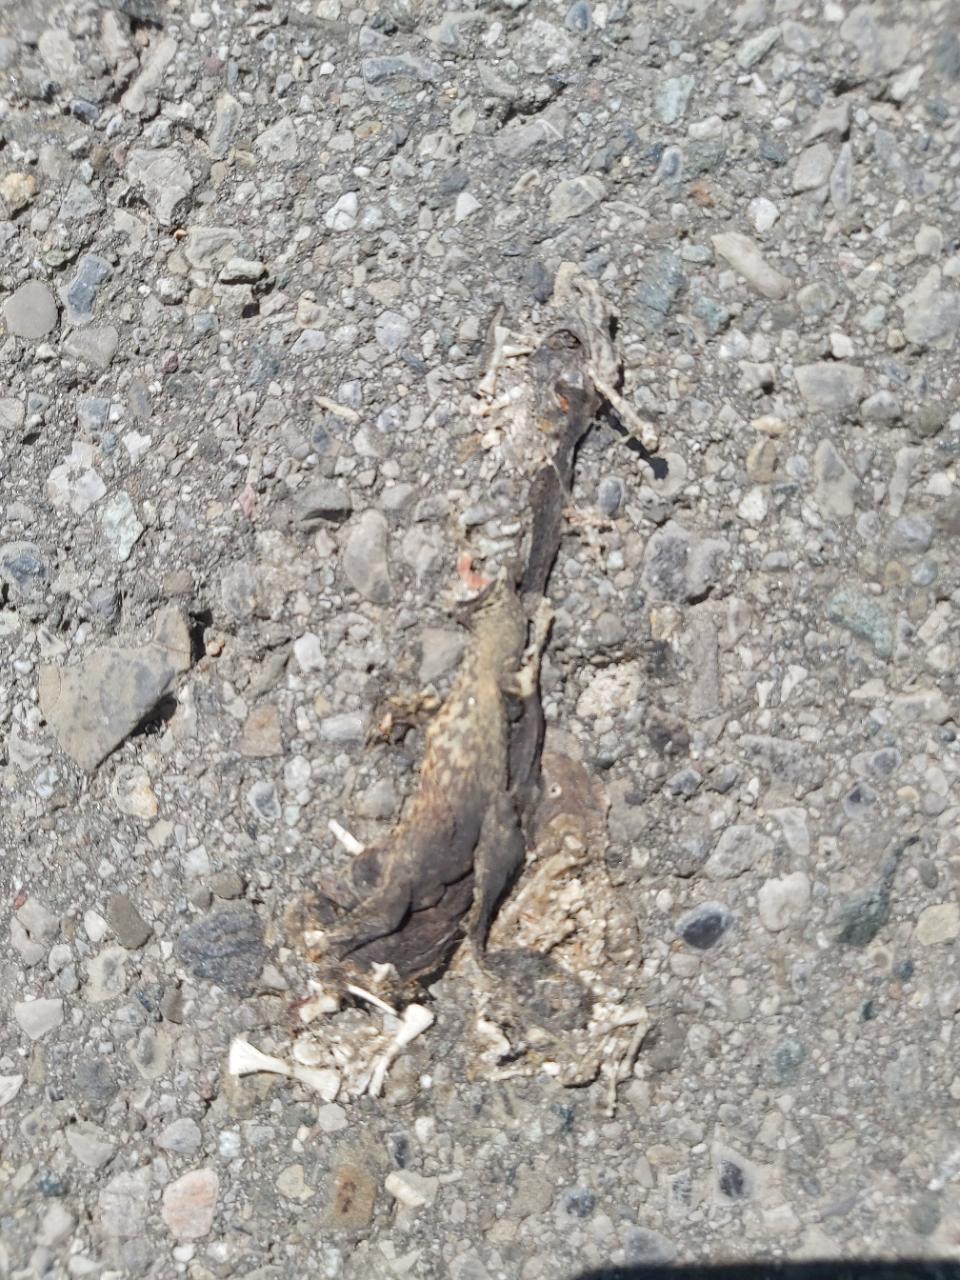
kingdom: Animalia
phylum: Chordata
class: Amphibia
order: Anura
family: Bufonidae
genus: Bufo
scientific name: Bufo bufo
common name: Common toad
